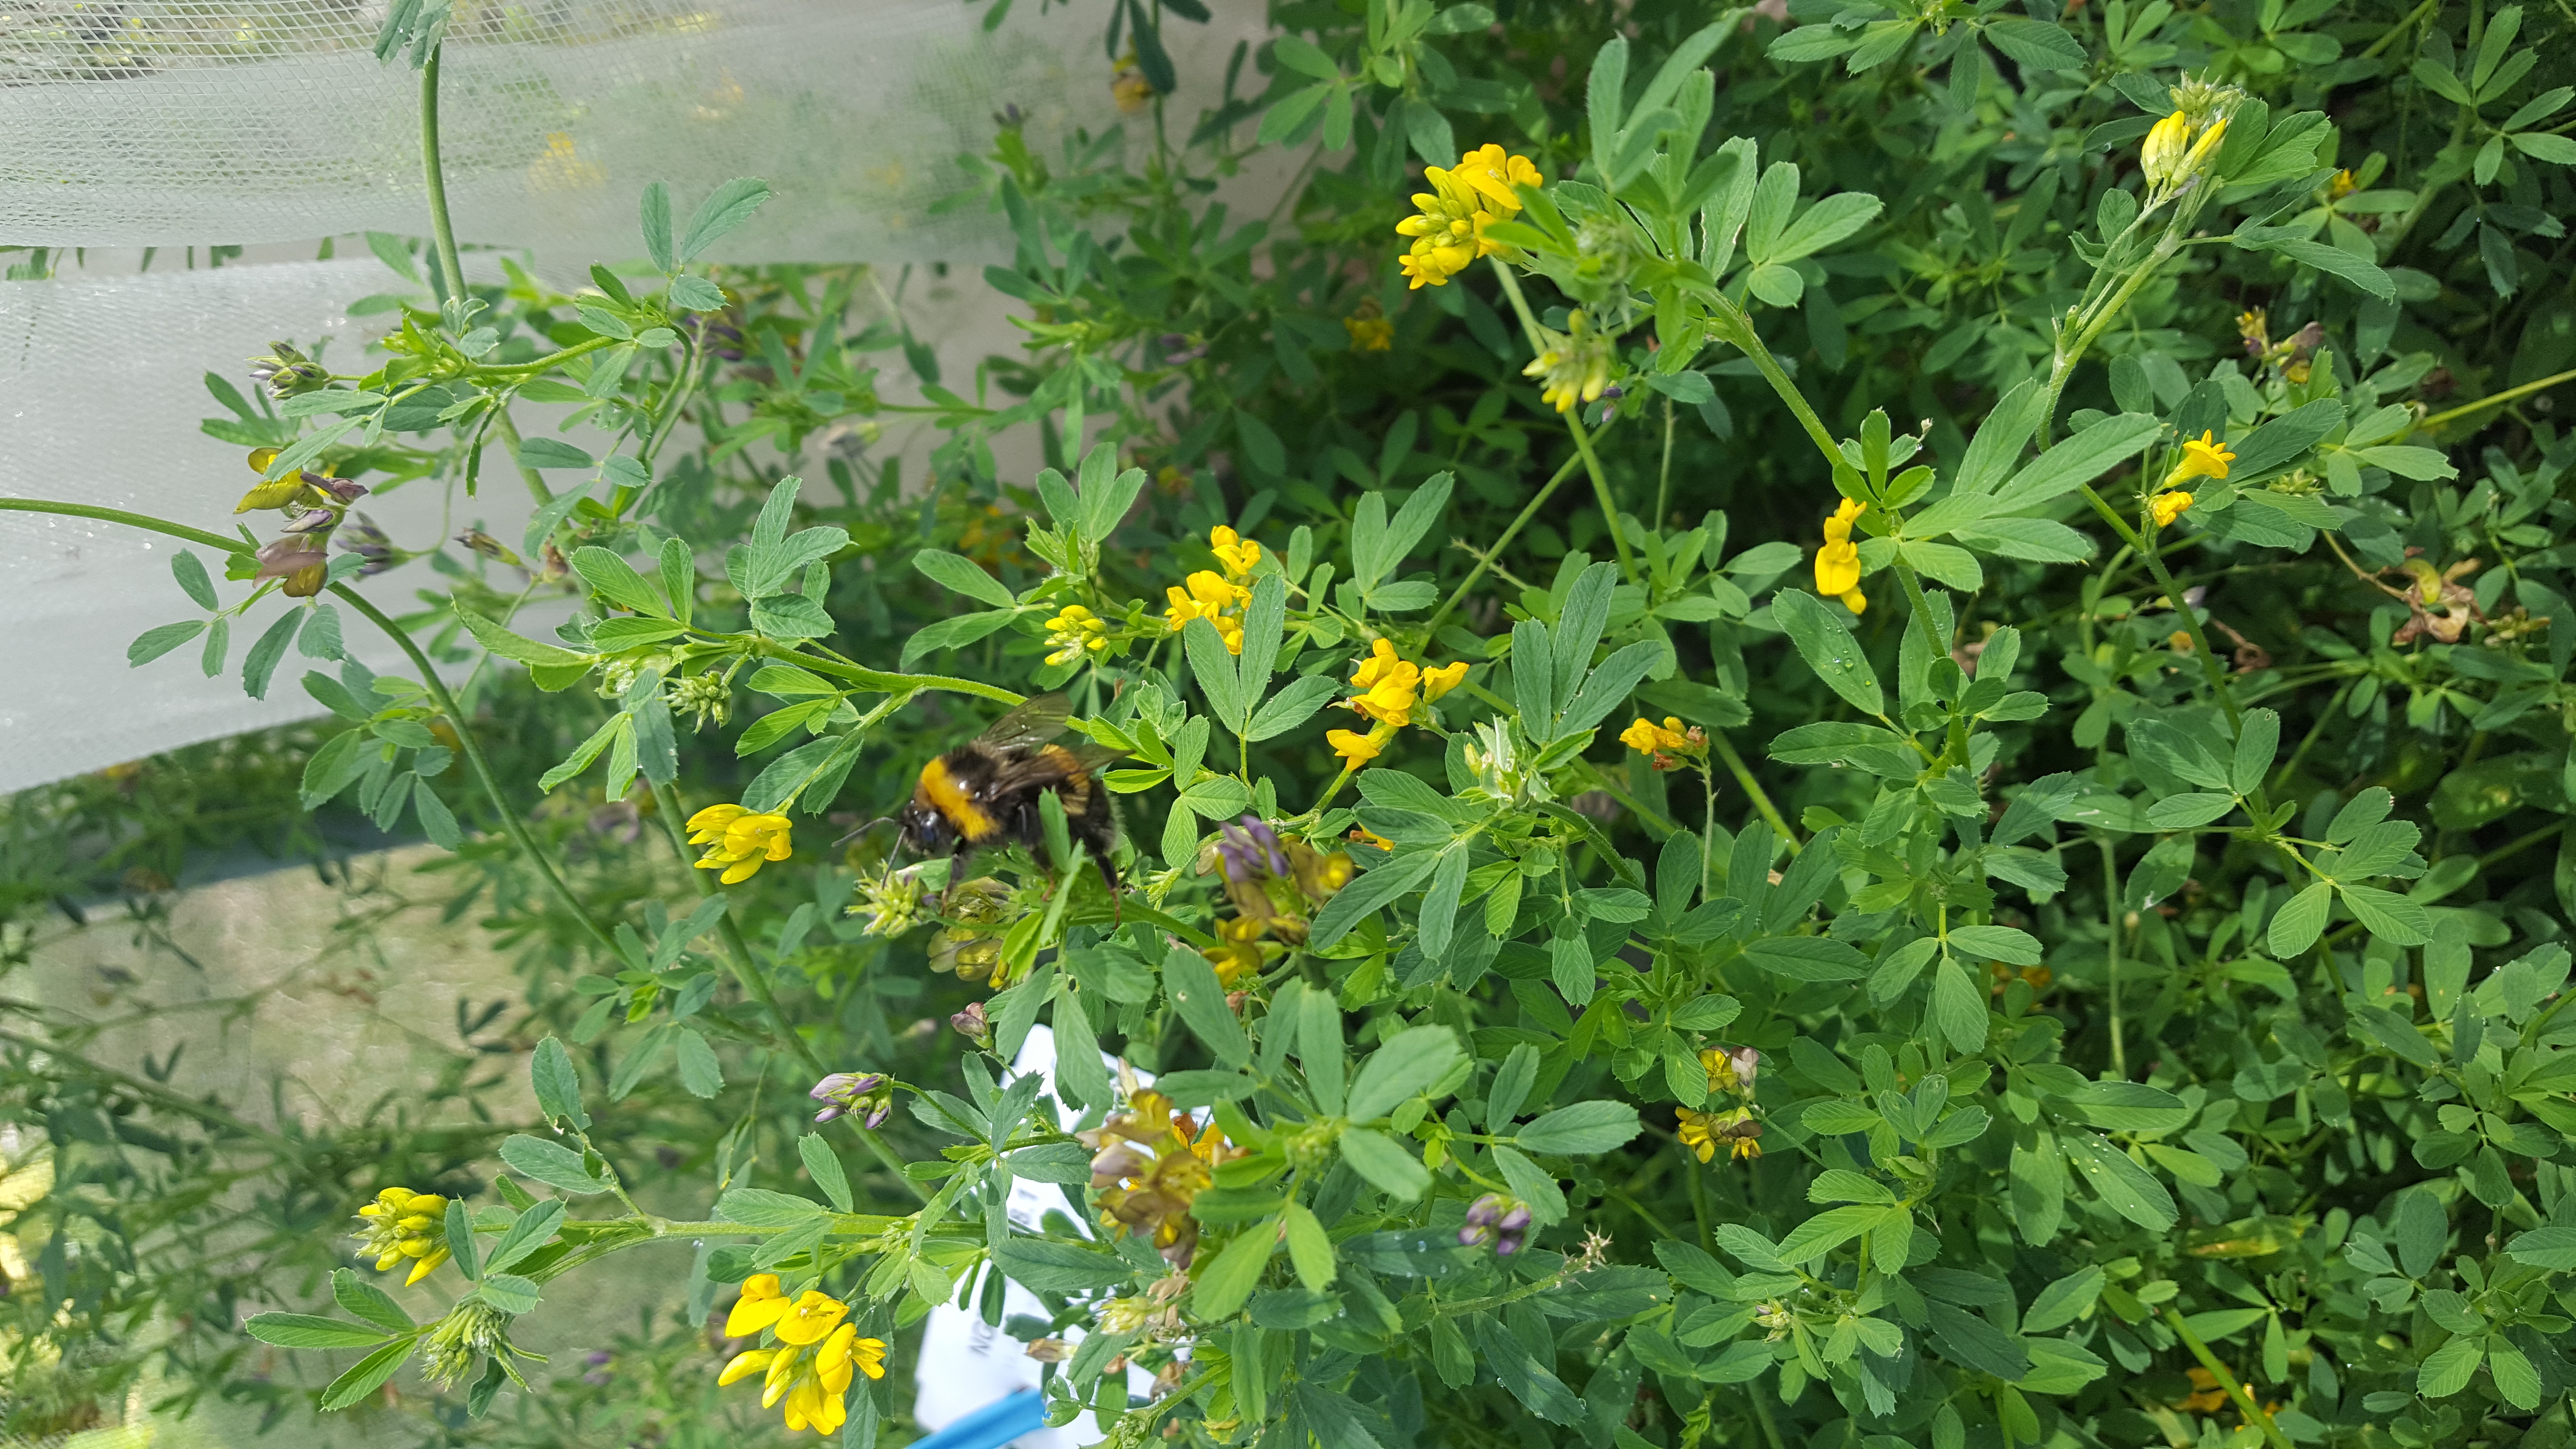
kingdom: Plantae
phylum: Tracheophyta
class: Magnoliopsida
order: Fabales
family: Fabaceae
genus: Medicago
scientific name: Medicago falcata
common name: Sickle medick
